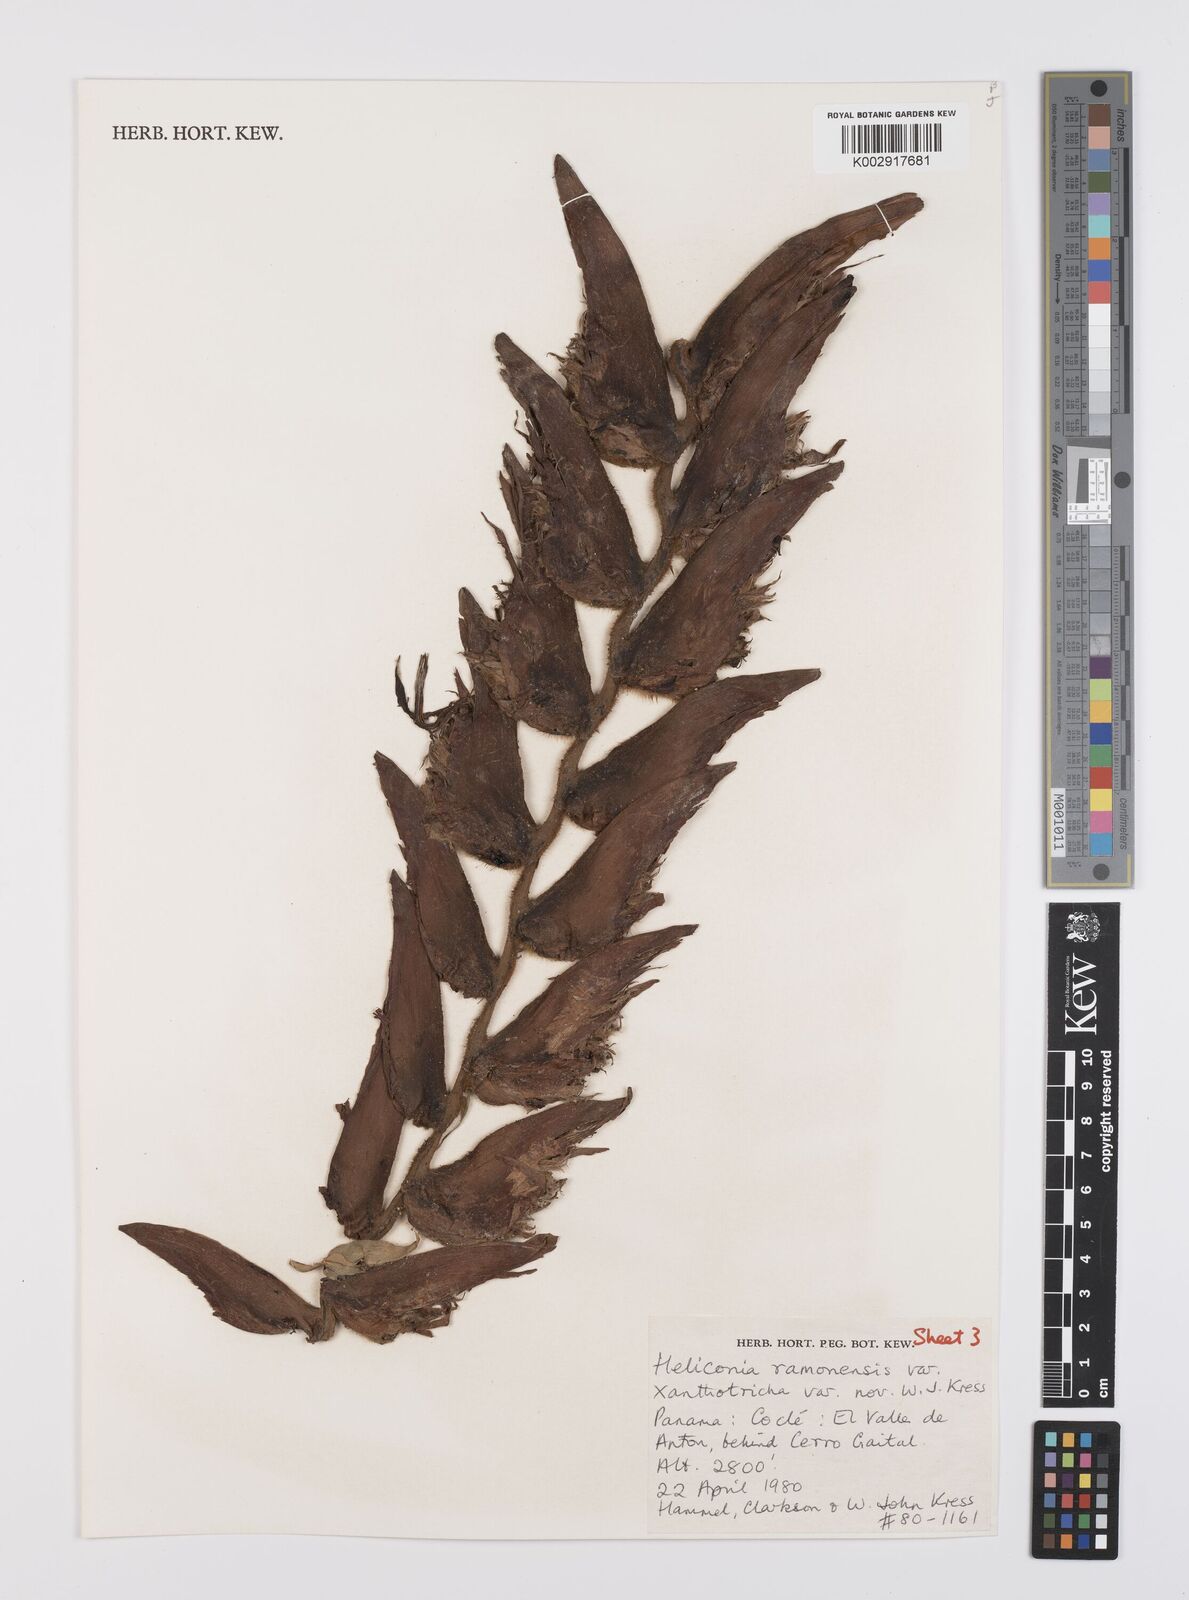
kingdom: Plantae
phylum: Tracheophyta
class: Liliopsida
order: Zingiberales
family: Heliconiaceae
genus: Heliconia
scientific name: Heliconia ramonensis
